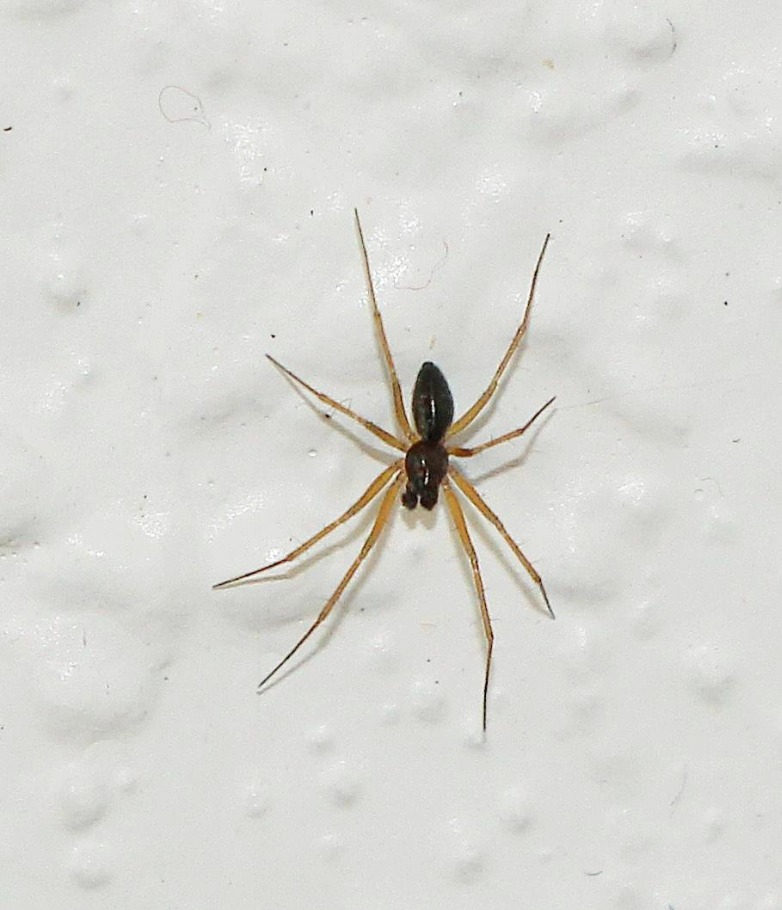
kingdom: Animalia
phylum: Arthropoda
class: Arachnida
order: Araneae
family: Linyphiidae
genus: Tenuiphantes
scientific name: Tenuiphantes
